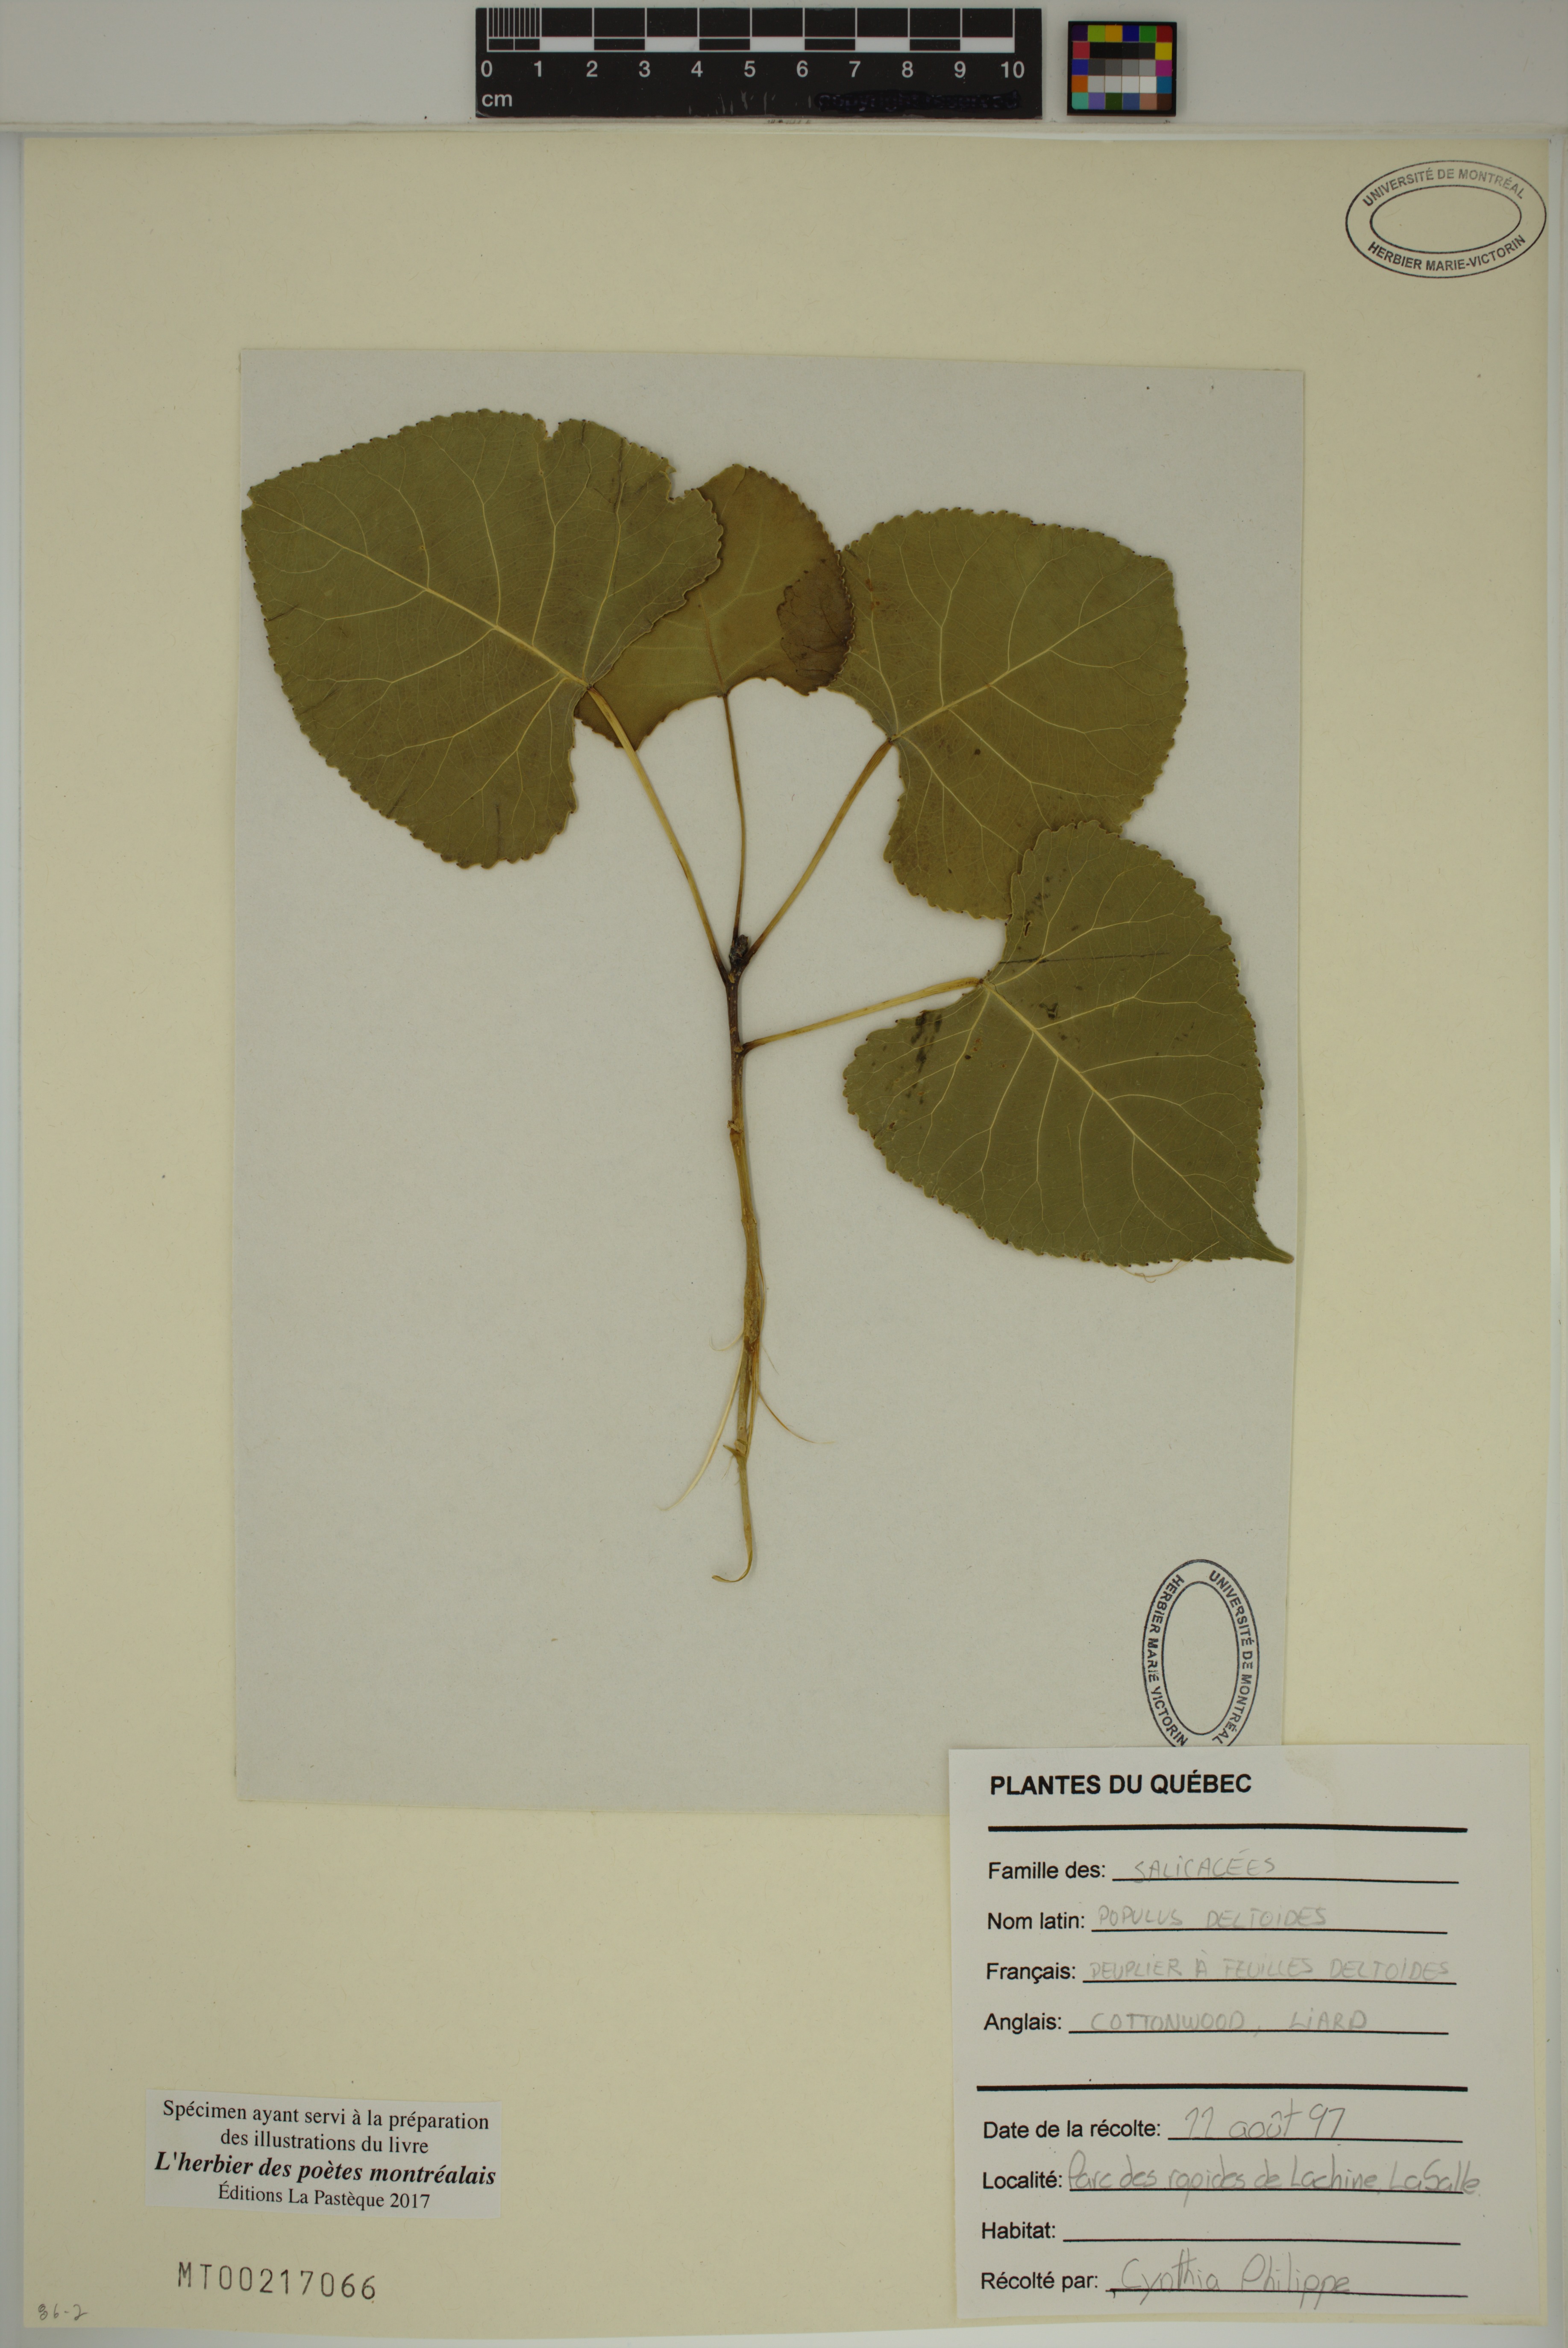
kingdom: Plantae
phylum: Tracheophyta
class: Magnoliopsida
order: Malpighiales
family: Salicaceae
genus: Populus
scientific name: Populus deltoides
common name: Eastern cottonwood
